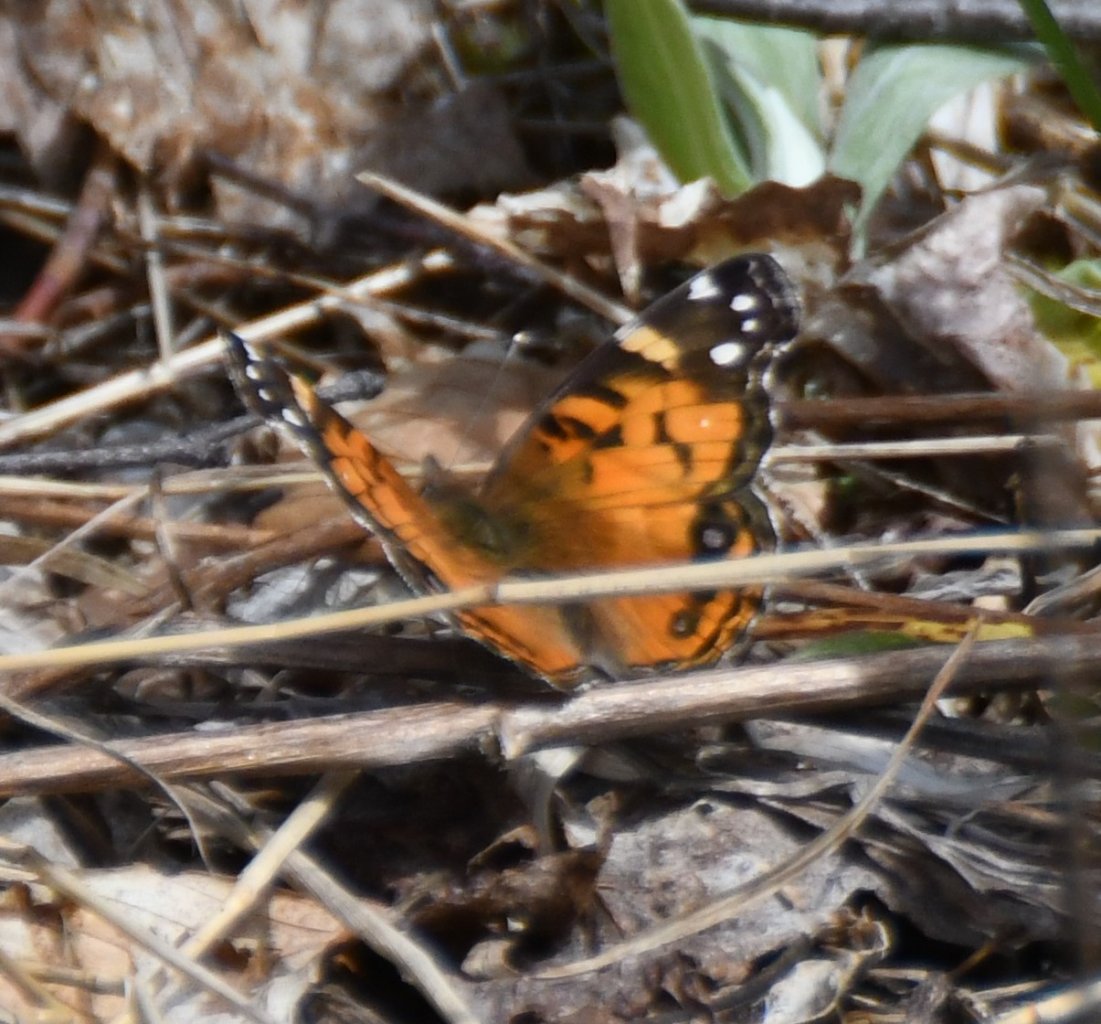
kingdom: Animalia
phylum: Arthropoda
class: Insecta
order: Lepidoptera
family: Nymphalidae
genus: Vanessa
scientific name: Vanessa virginiensis
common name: American Lady
